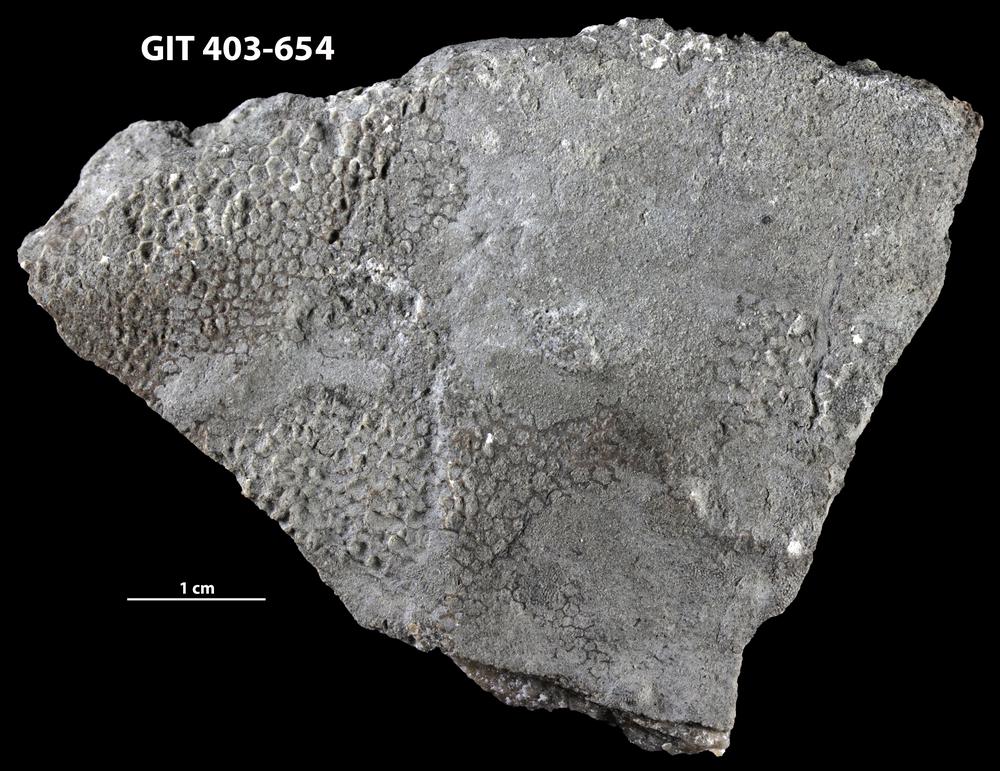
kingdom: Animalia
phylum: Cnidaria
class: Anthozoa
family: Favositidae
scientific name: Favositidae
